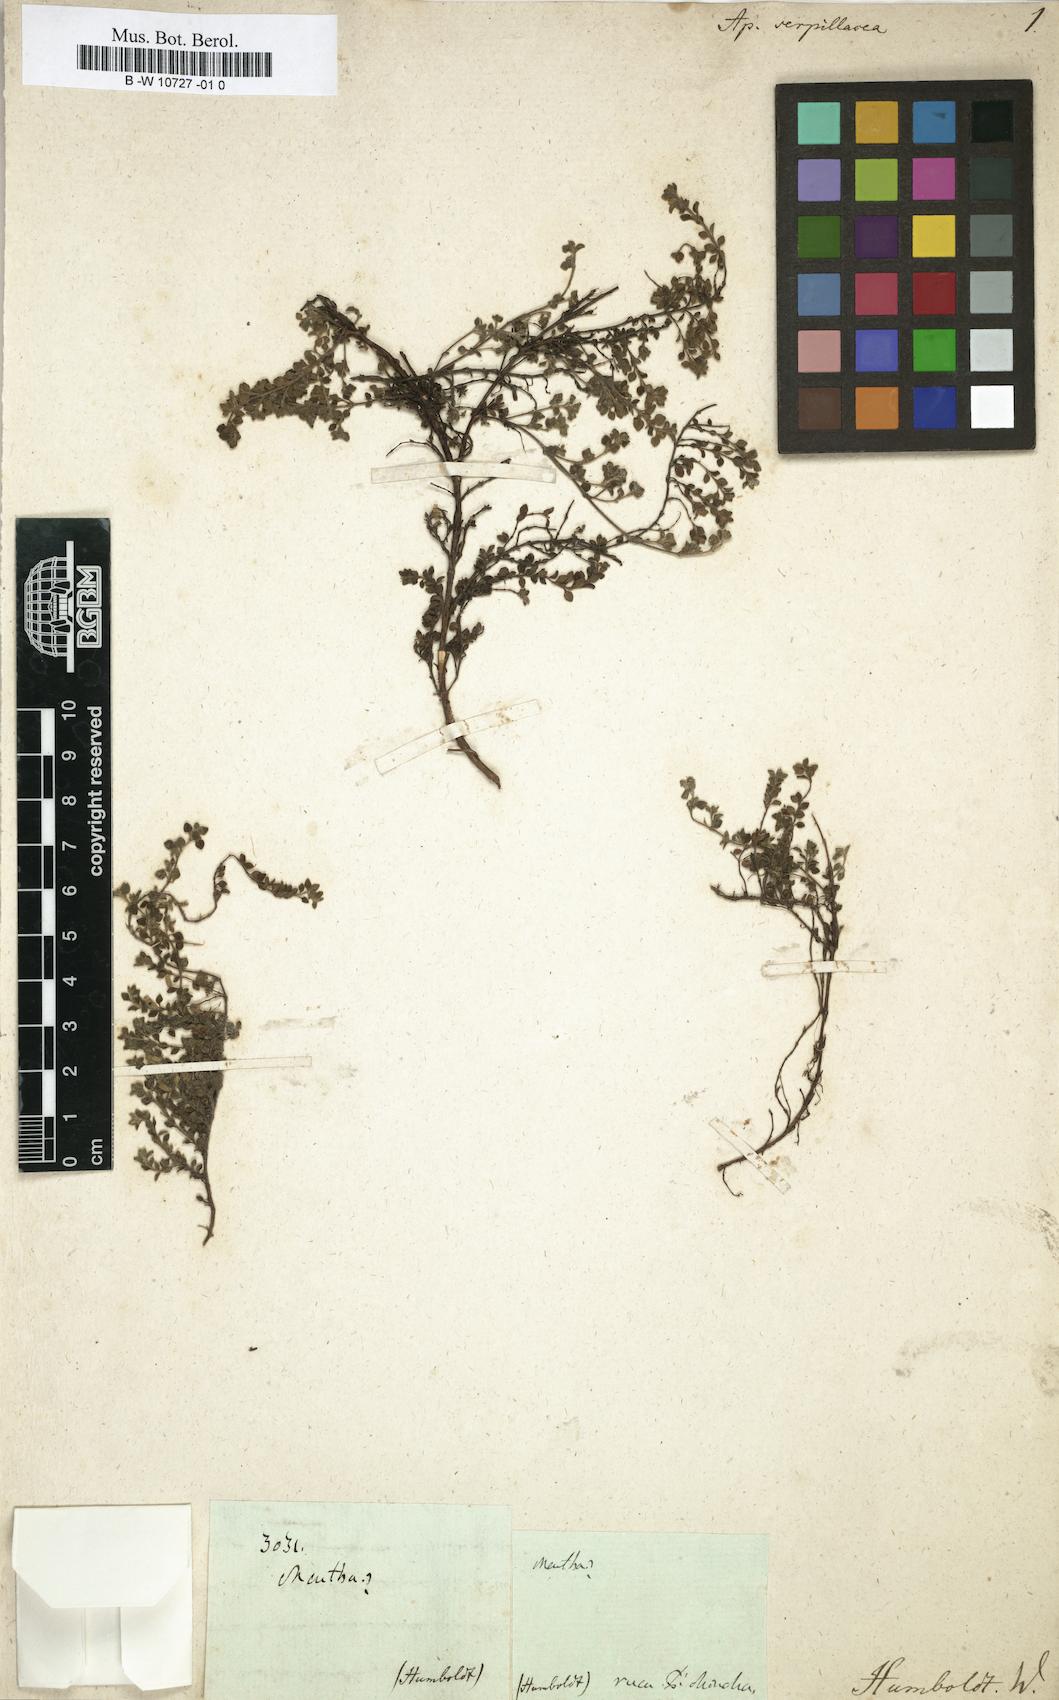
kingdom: Plantae
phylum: Tracheophyta
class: Magnoliopsida
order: Lamiales
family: Lamiaceae
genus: Clinopodium
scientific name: Clinopodium brownei
